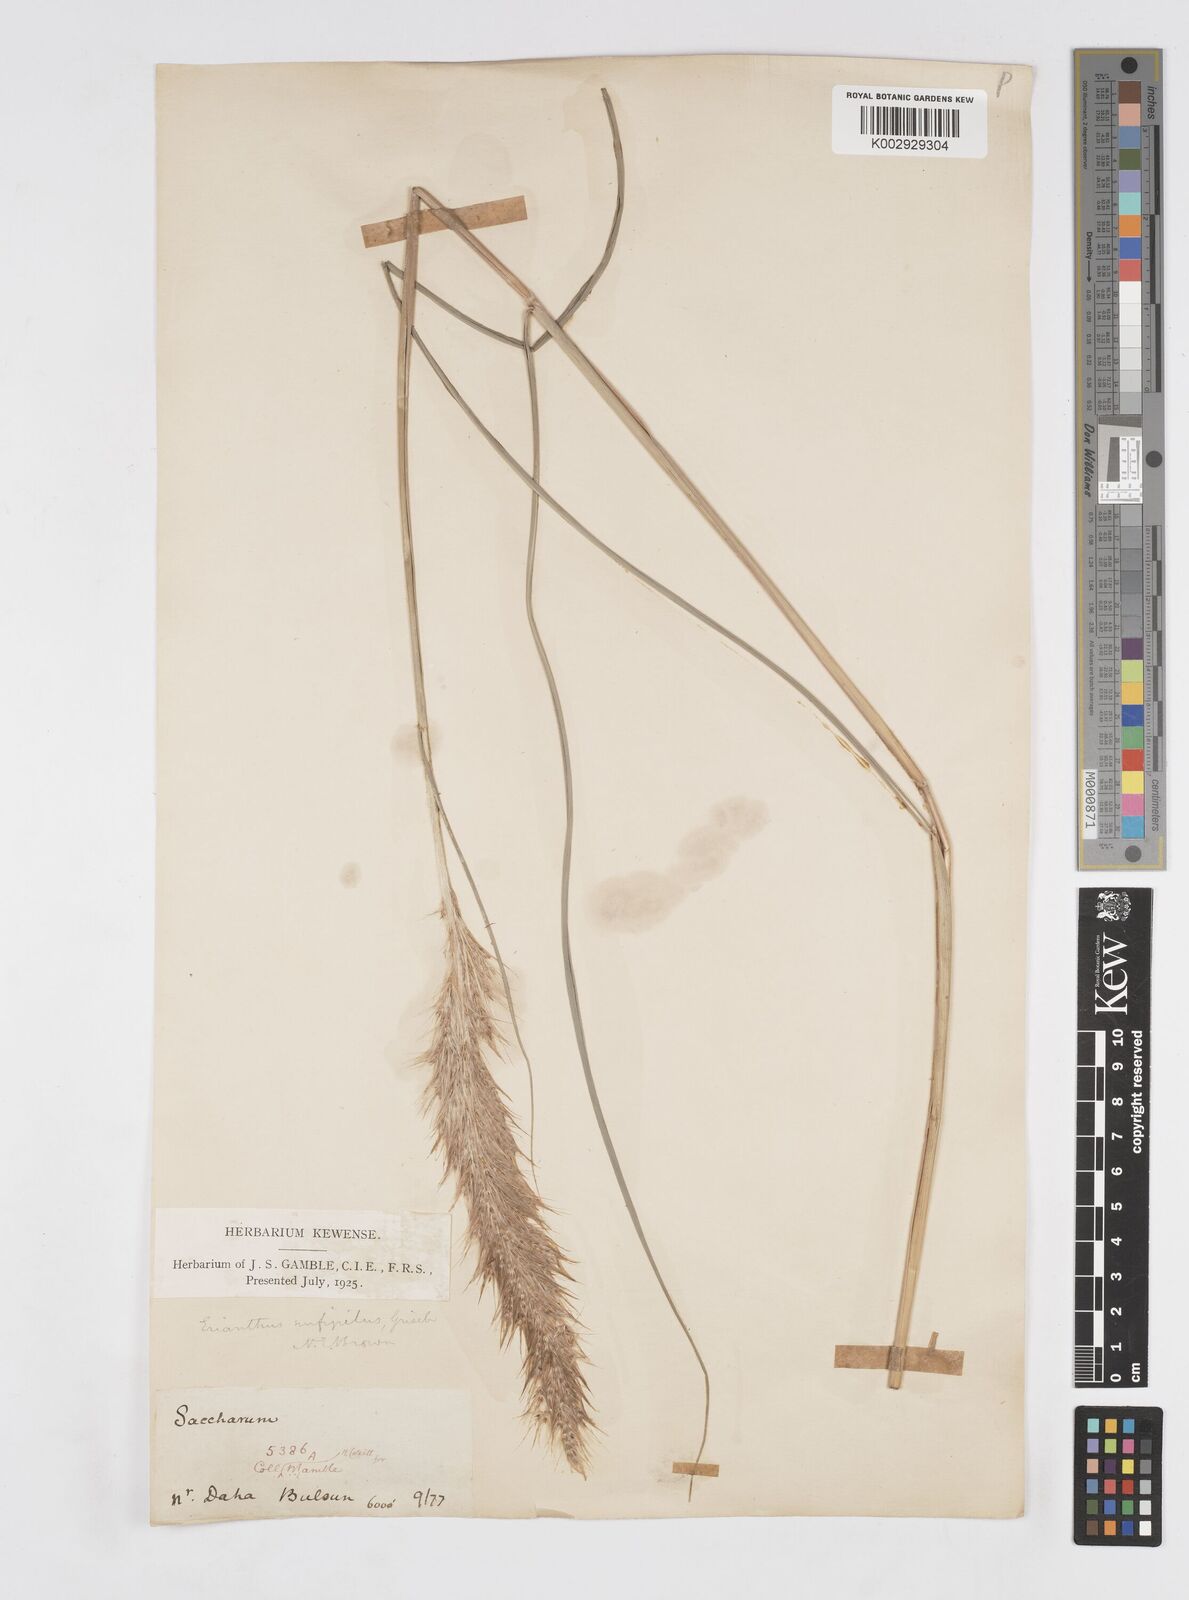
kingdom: Plantae
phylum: Tracheophyta
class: Liliopsida
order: Poales
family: Poaceae
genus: Tripidium
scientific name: Tripidium rufipilum
